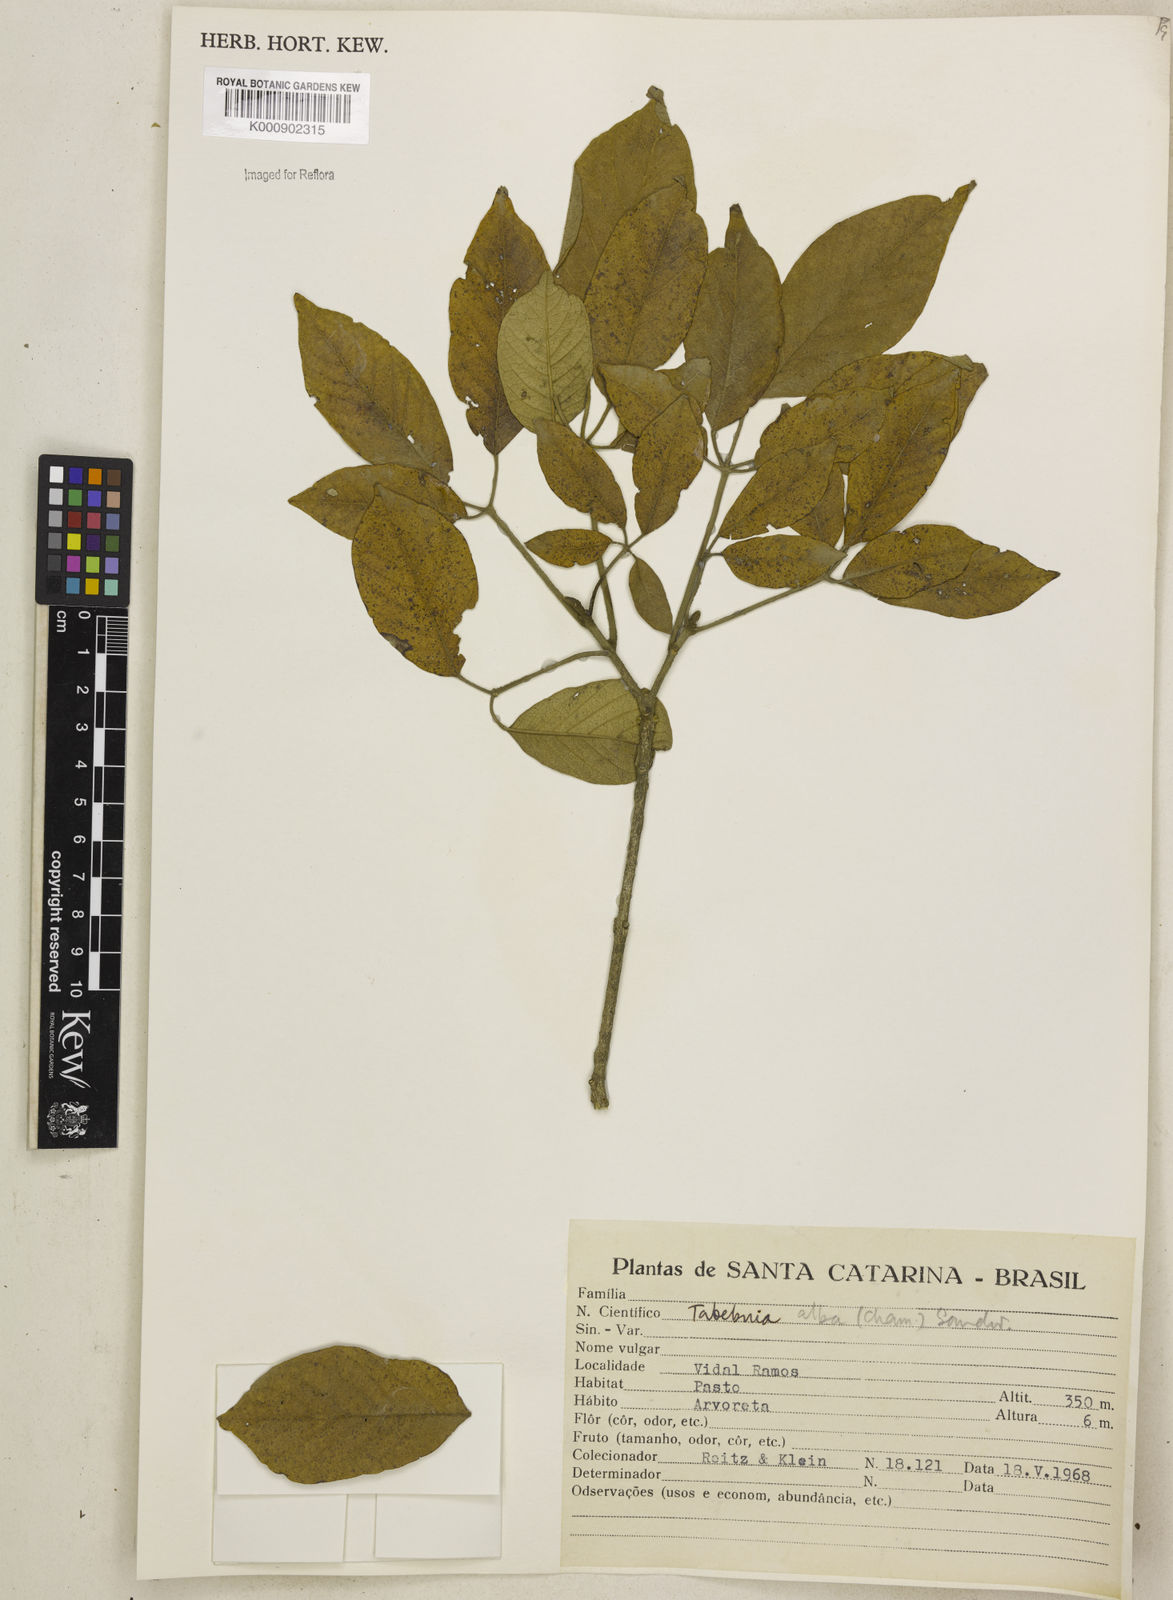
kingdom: Plantae
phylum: Tracheophyta
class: Magnoliopsida
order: Lamiales
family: Bignoniaceae
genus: Handroanthus
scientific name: Handroanthus albus
